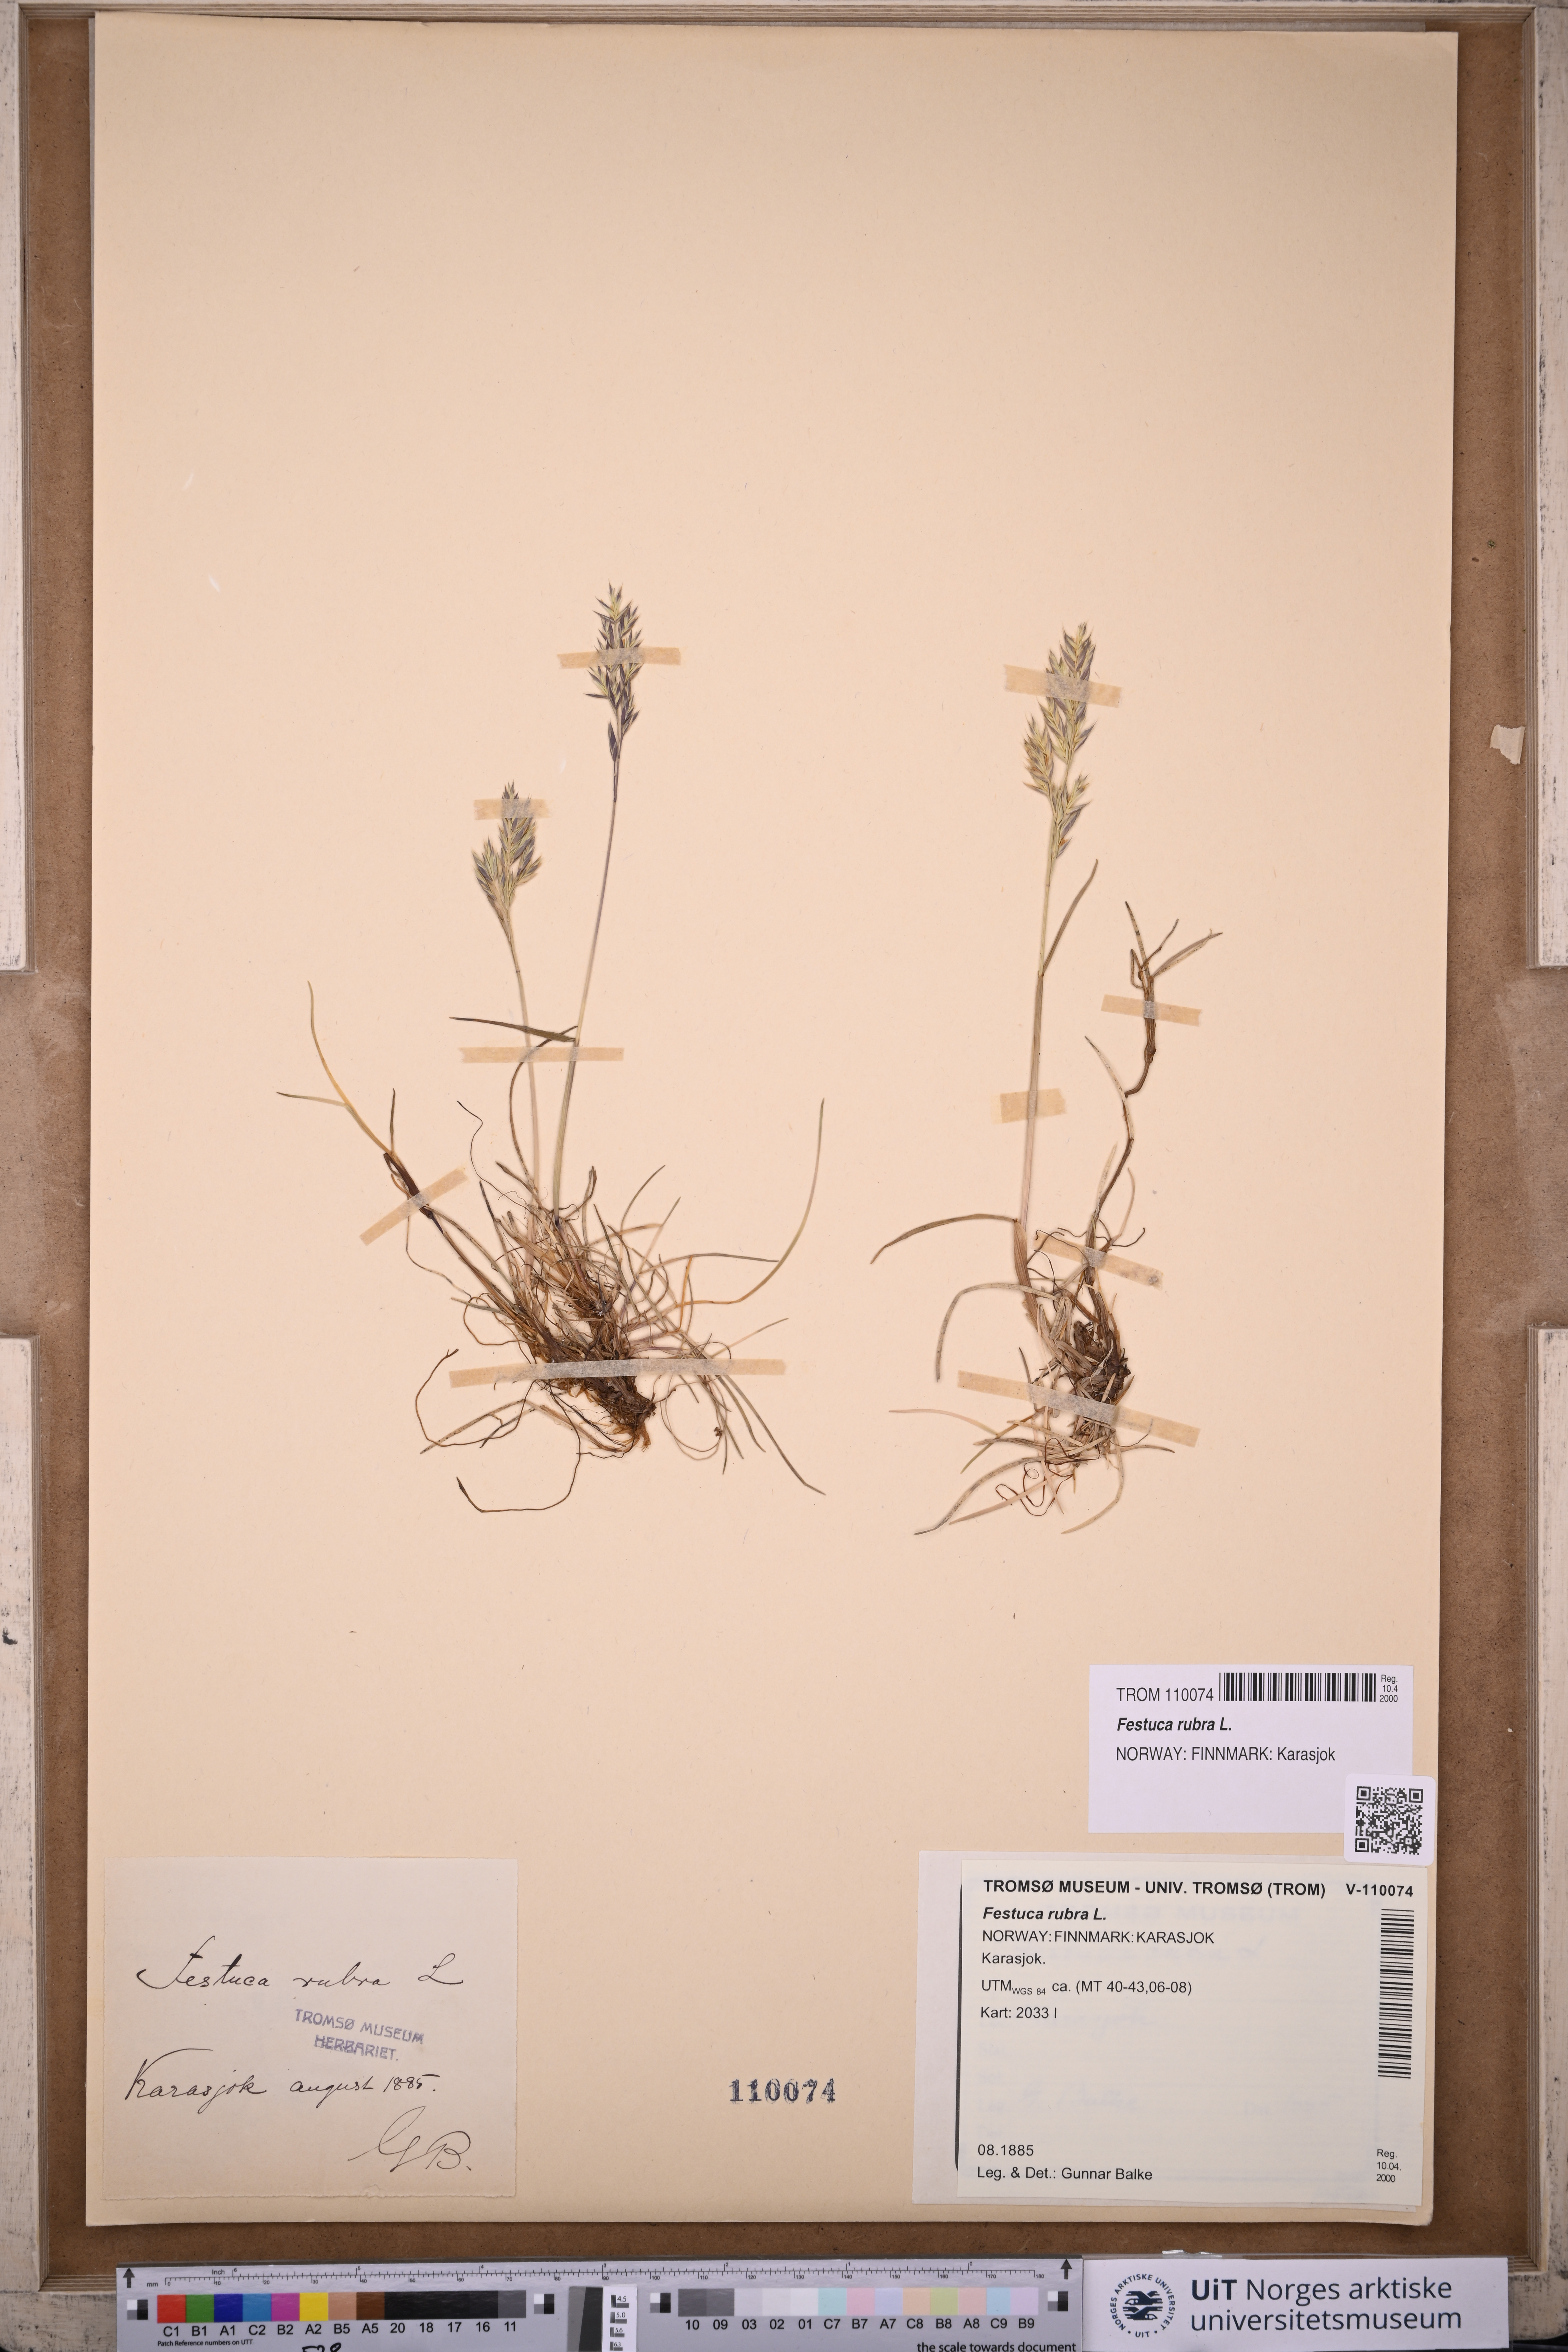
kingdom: Plantae
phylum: Tracheophyta
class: Liliopsida
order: Poales
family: Poaceae
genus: Festuca
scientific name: Festuca rubra
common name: Red fescue
